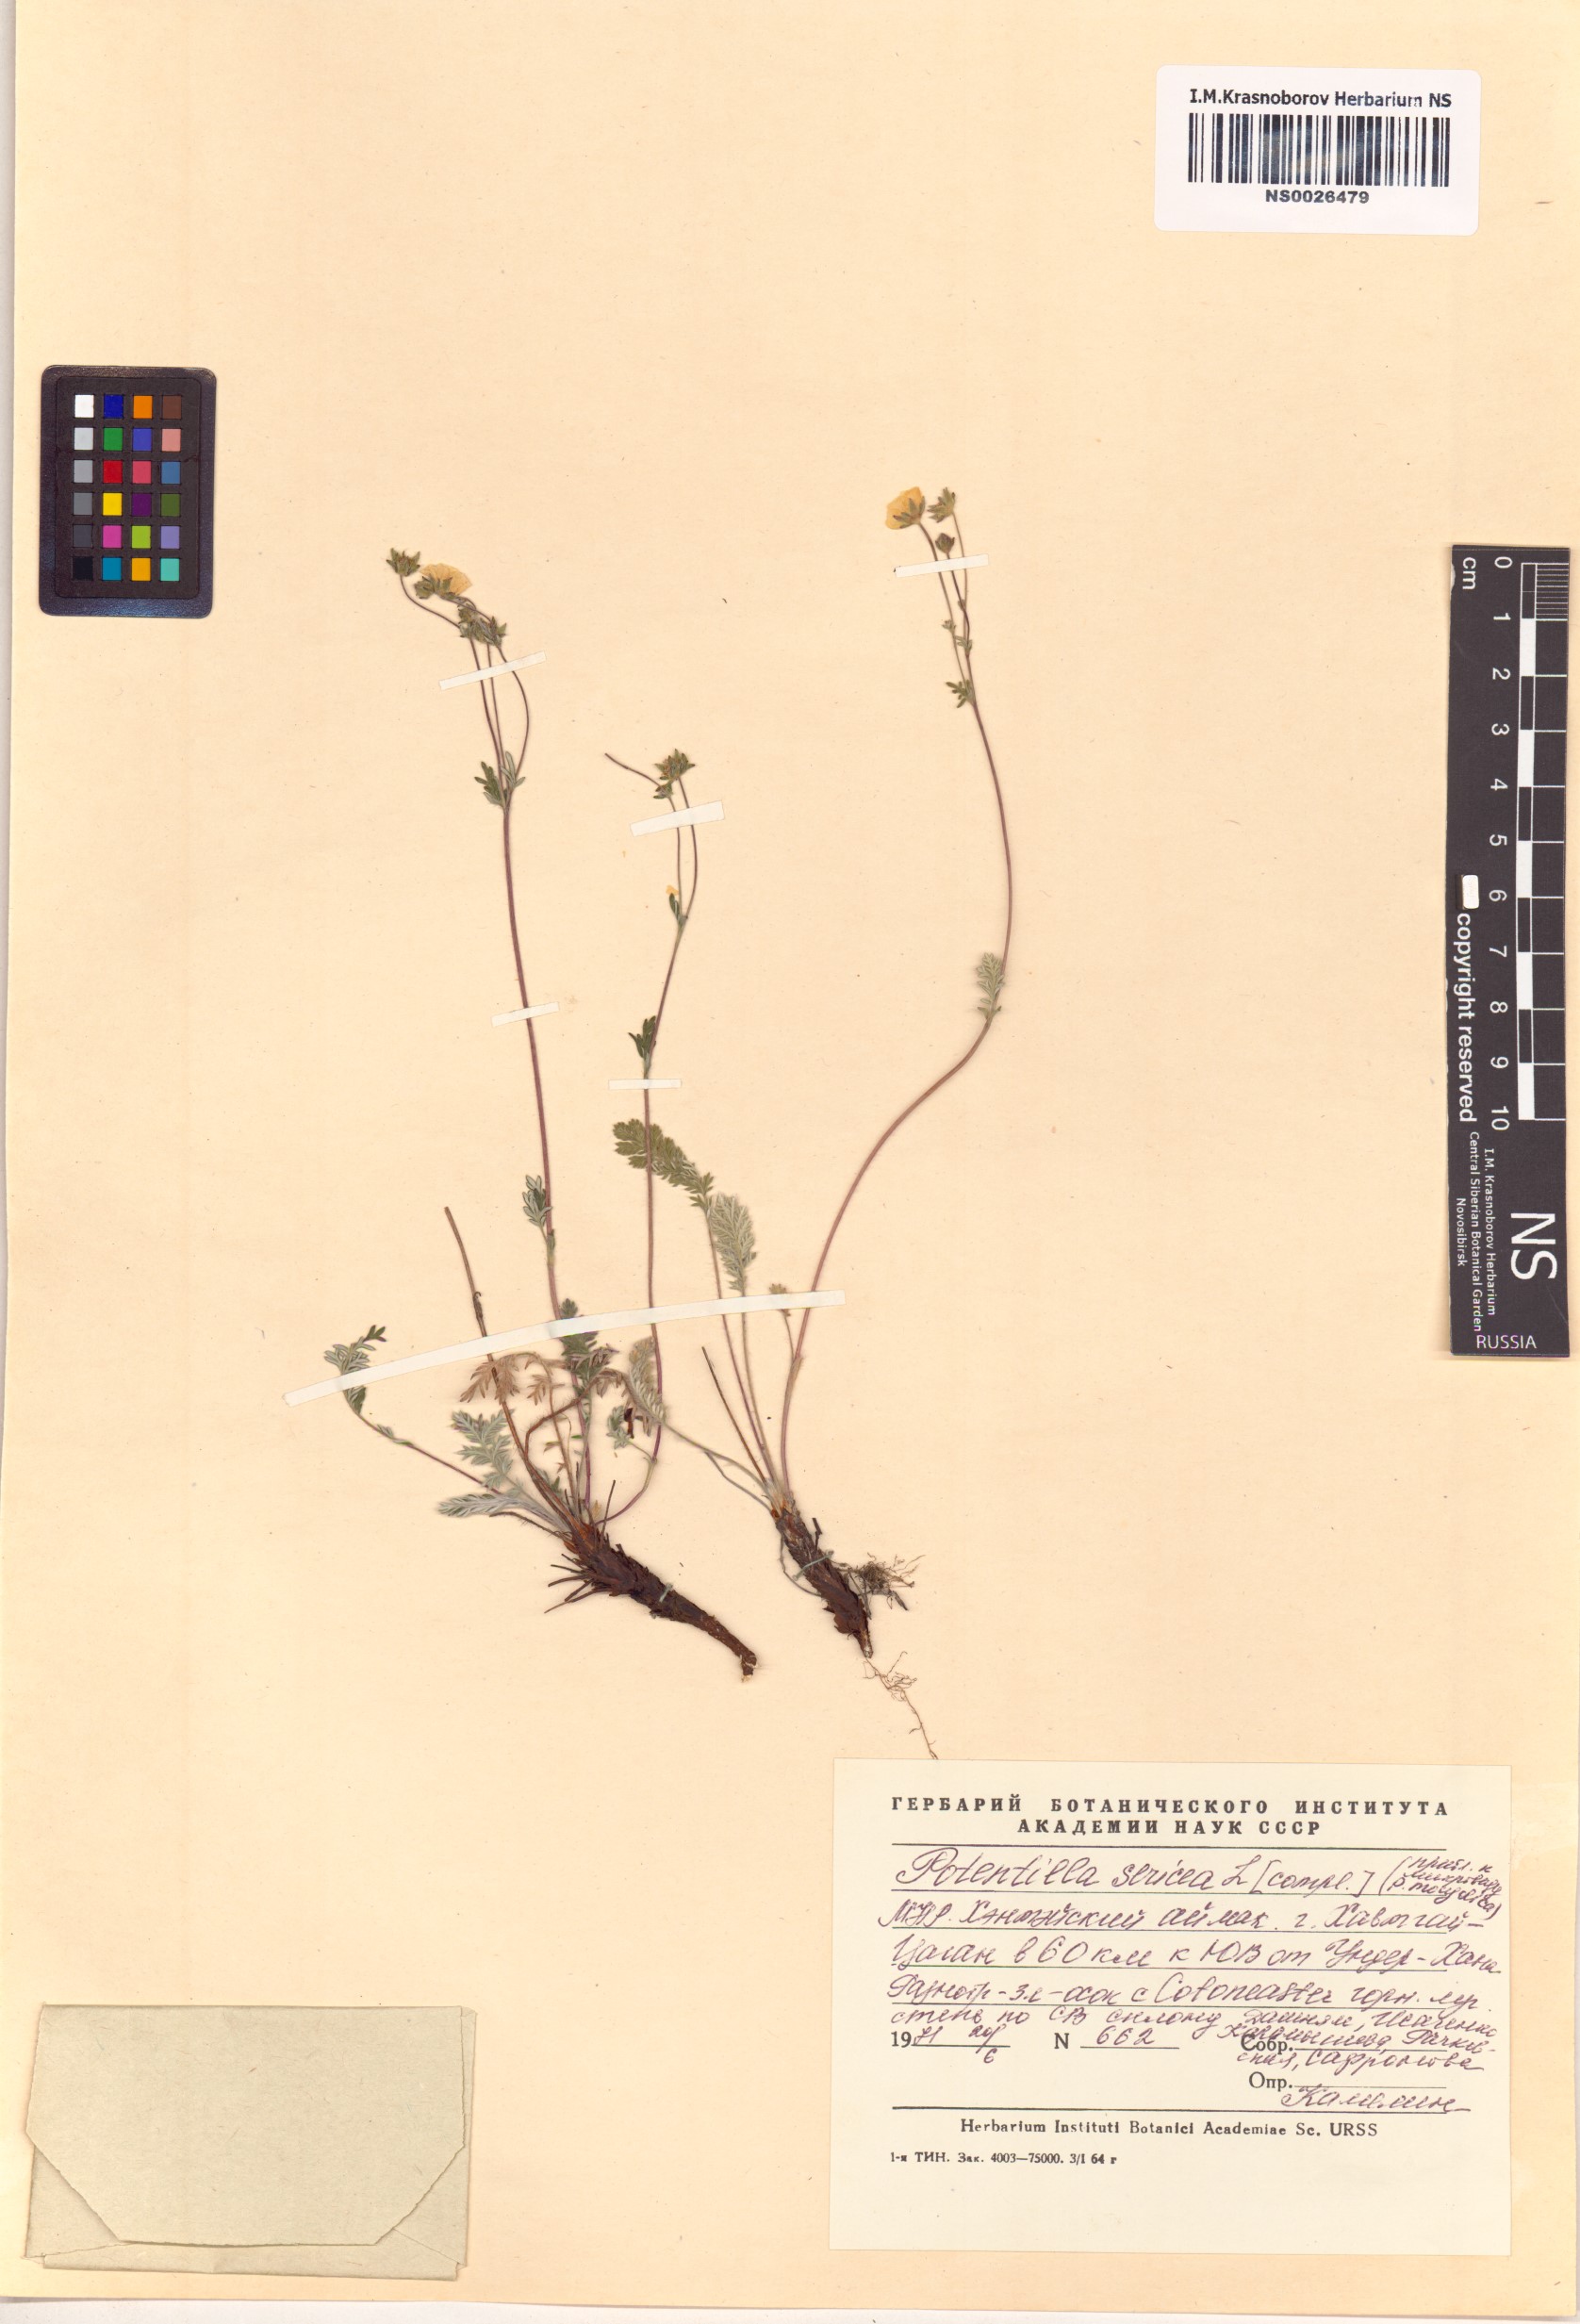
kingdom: Plantae
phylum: Tracheophyta
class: Magnoliopsida
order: Rosales
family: Rosaceae
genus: Potentilla
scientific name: Potentilla sericea
